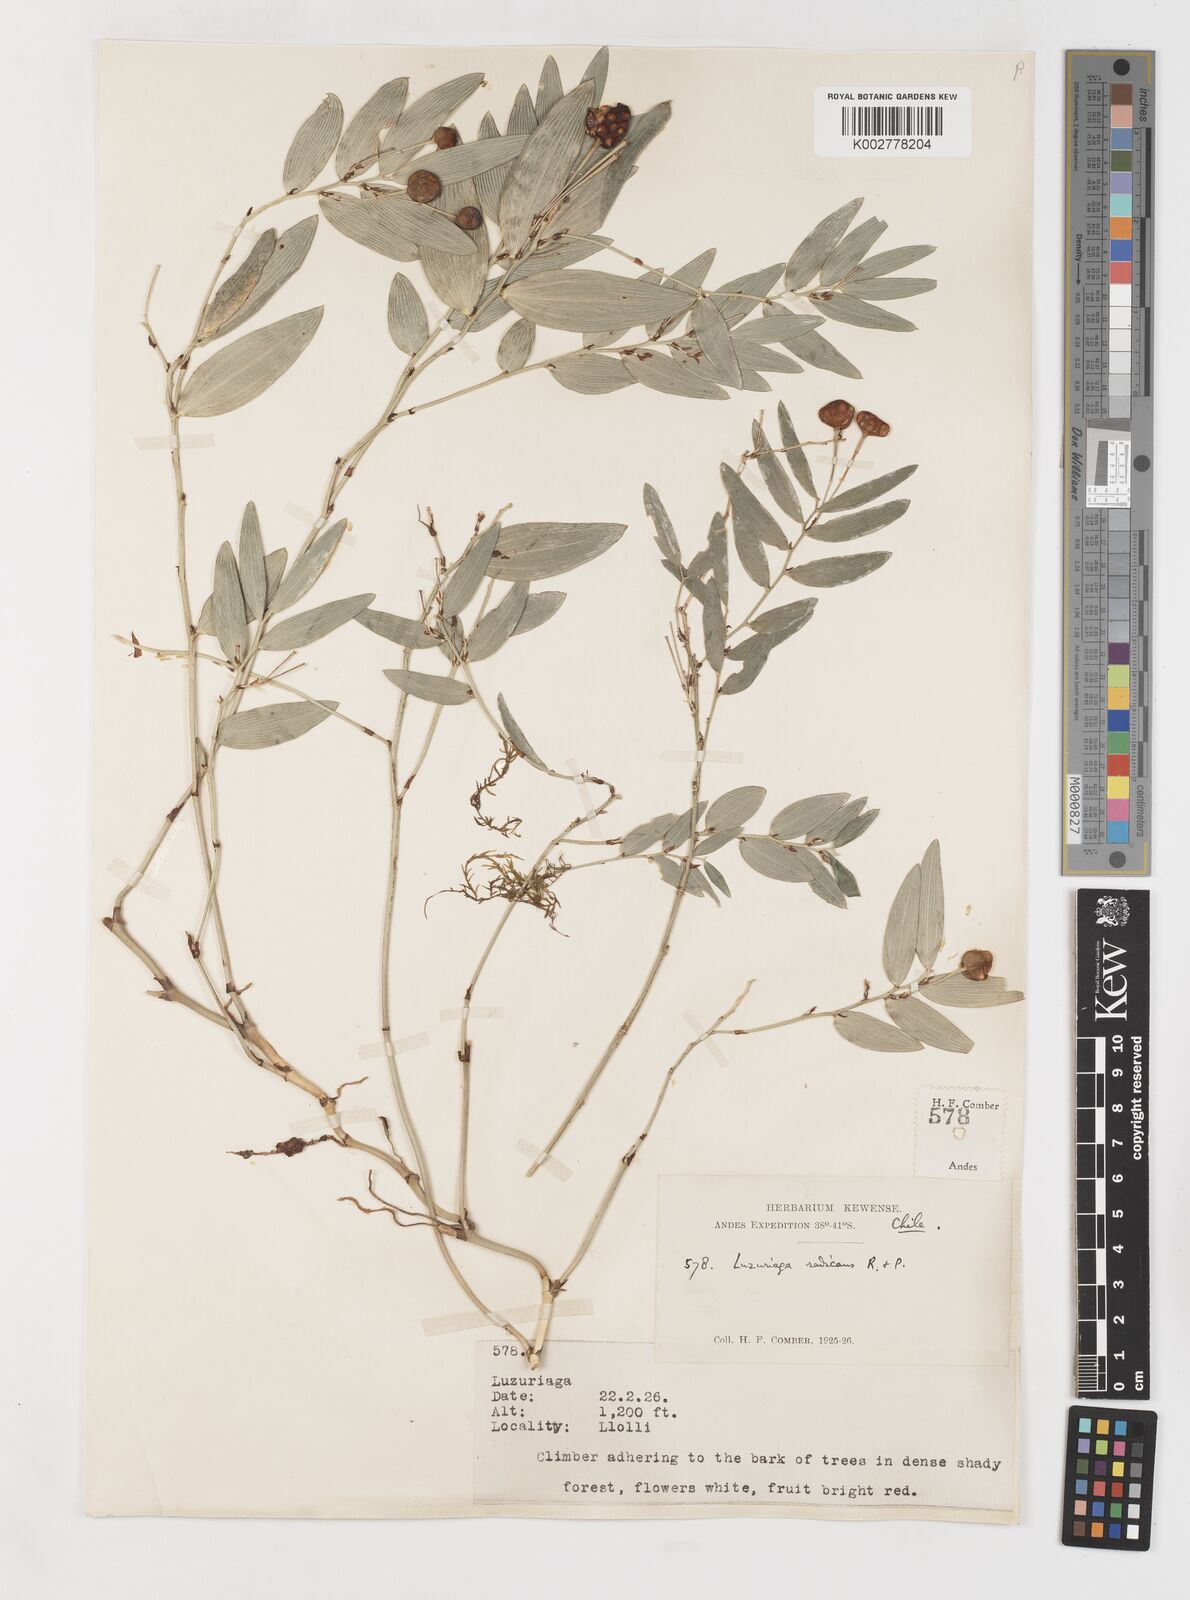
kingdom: Plantae
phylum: Tracheophyta
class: Liliopsida
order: Liliales
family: Alstroemeriaceae
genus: Luzuriaga
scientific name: Luzuriaga radicans
